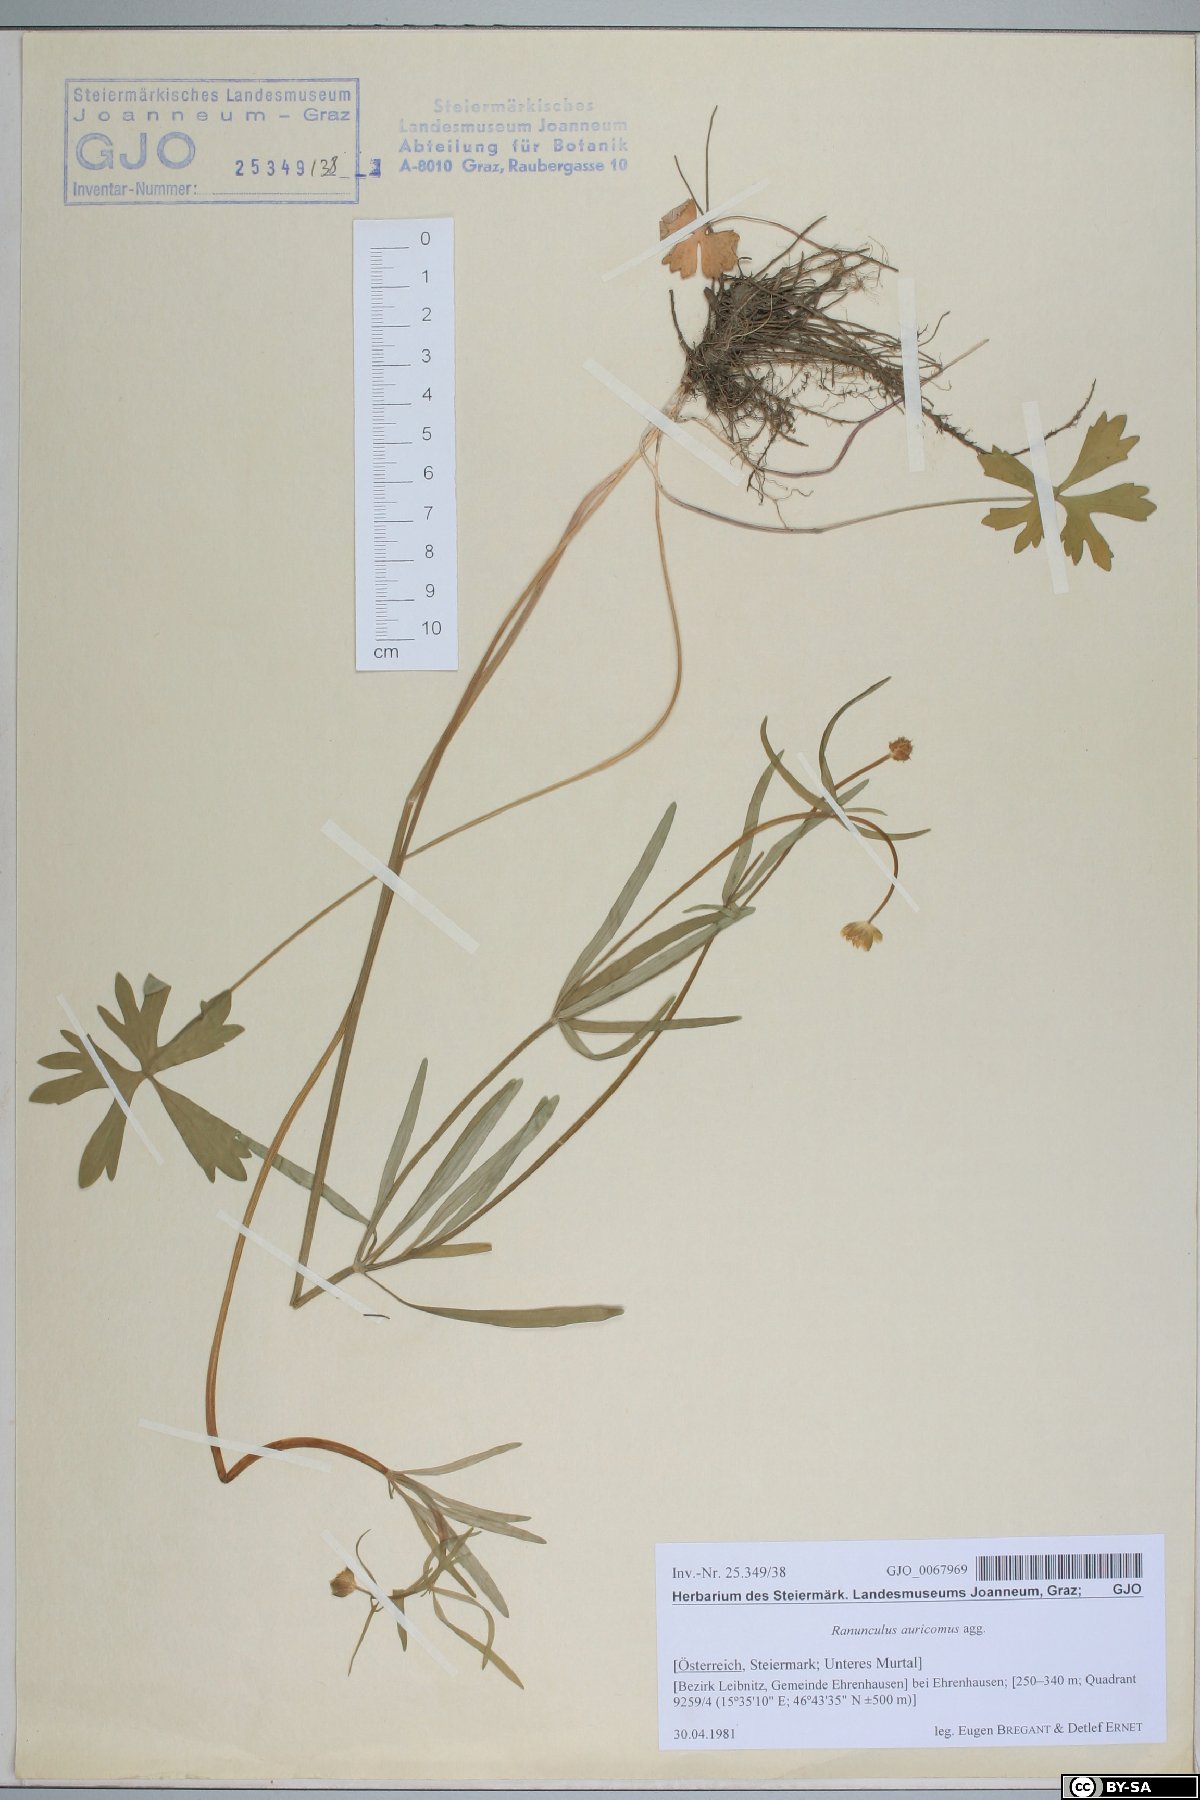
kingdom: Plantae
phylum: Tracheophyta
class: Magnoliopsida
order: Ranunculales
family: Ranunculaceae
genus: Ranunculus
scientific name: Ranunculus auricomus
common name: Goldilocks buttercup
